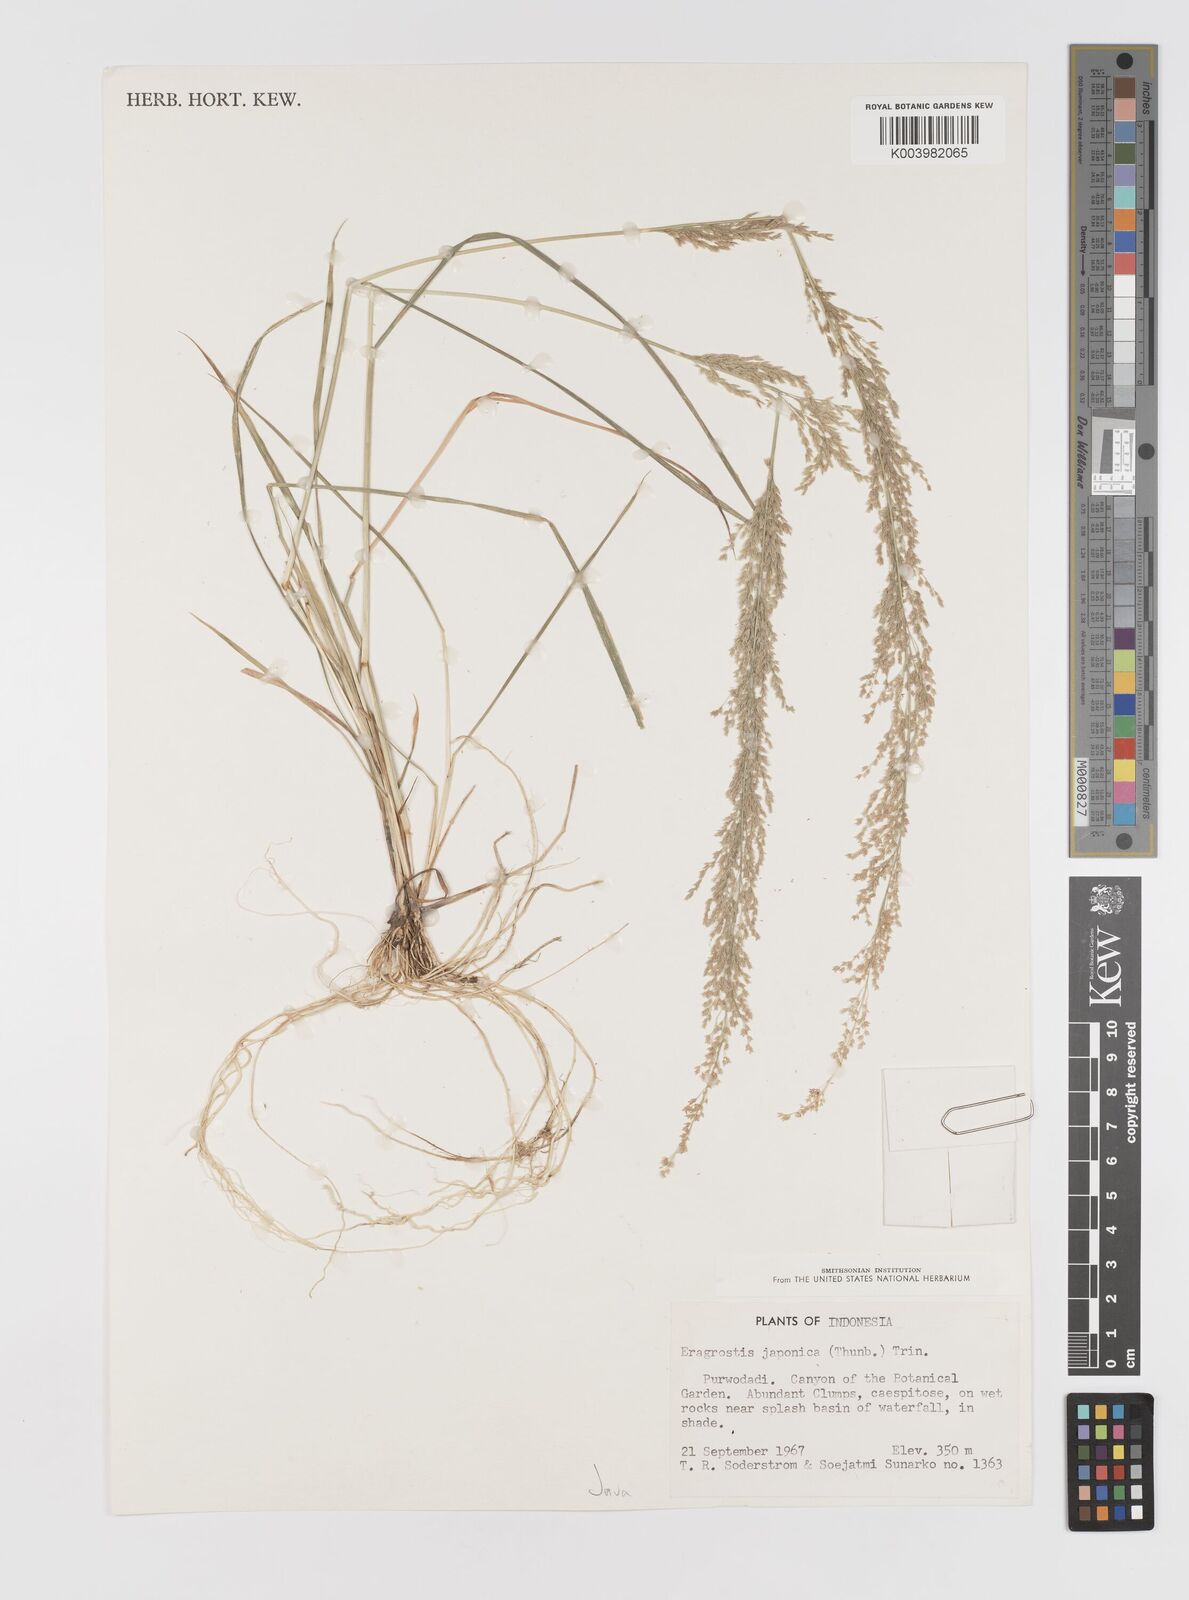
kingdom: Plantae
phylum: Tracheophyta
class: Liliopsida
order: Poales
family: Poaceae
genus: Eragrostis
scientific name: Eragrostis japonica
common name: Pond lovegrass
